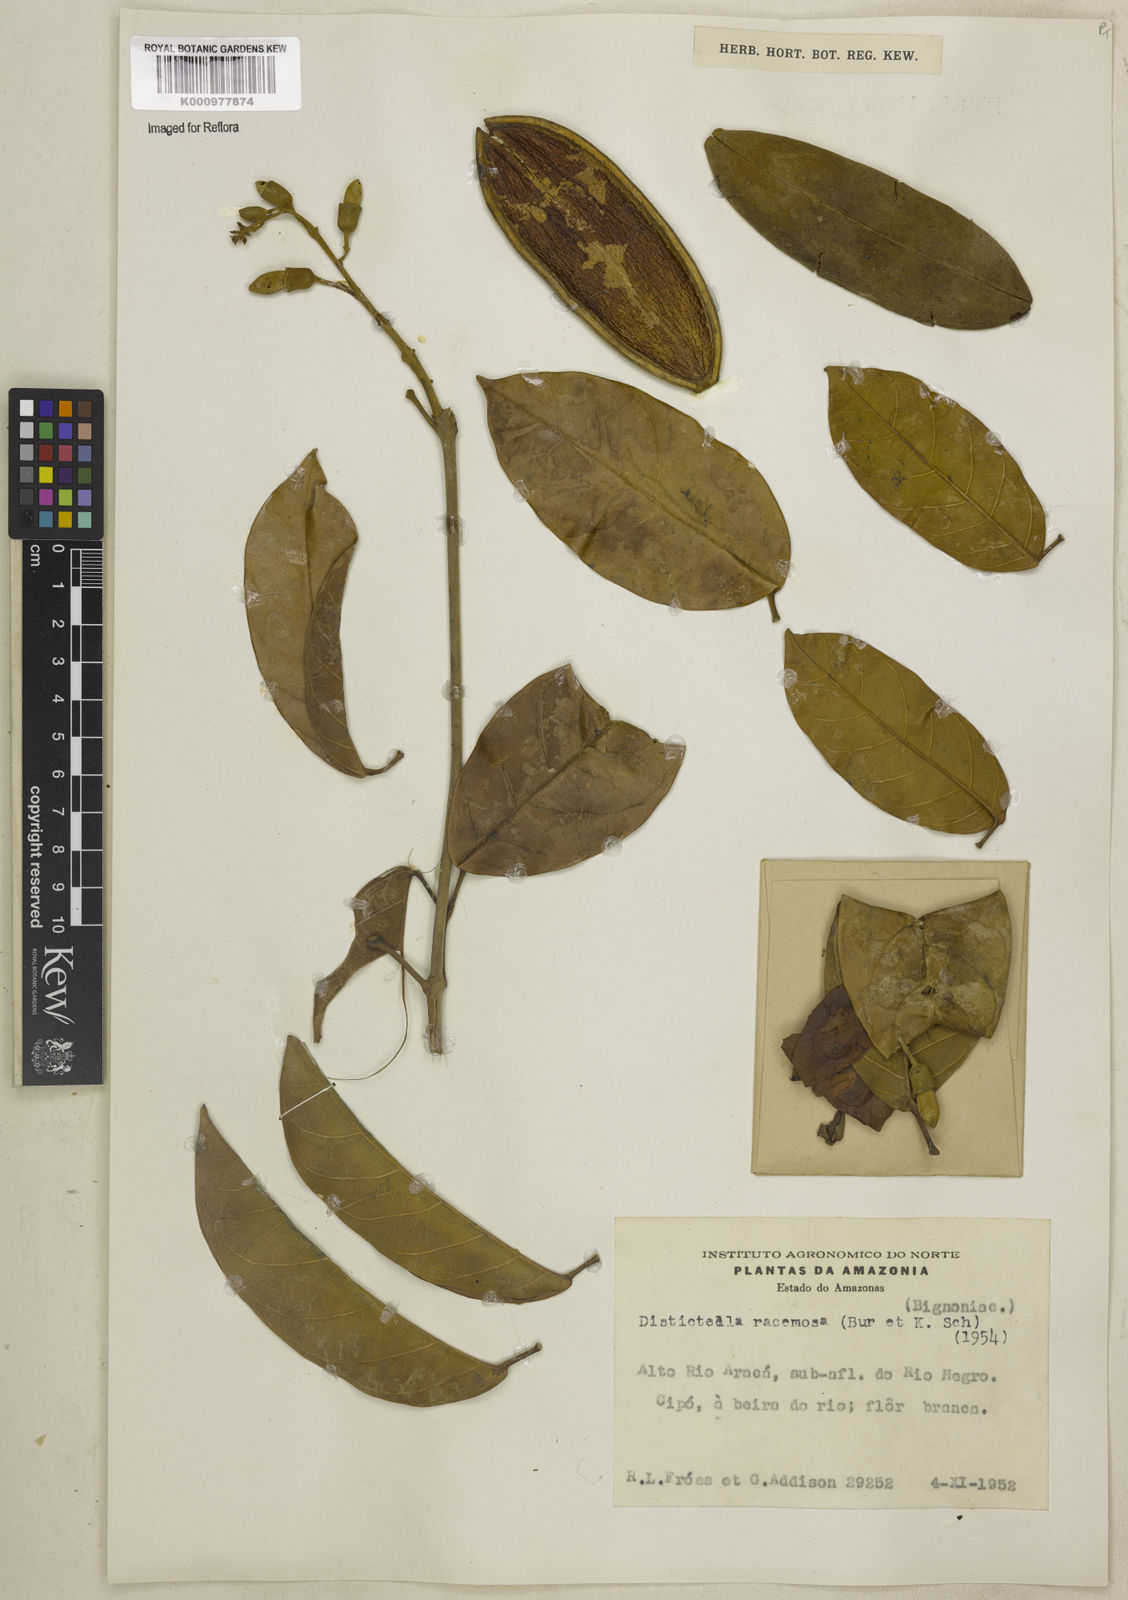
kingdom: Plantae
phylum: Tracheophyta
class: Magnoliopsida
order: Lamiales
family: Bignoniaceae
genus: Amphilophium
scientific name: Amphilophium racemosum
